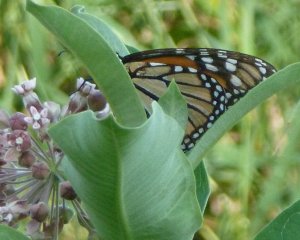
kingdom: Animalia
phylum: Arthropoda
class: Insecta
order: Lepidoptera
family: Nymphalidae
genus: Danaus
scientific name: Danaus plexippus
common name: Monarch
